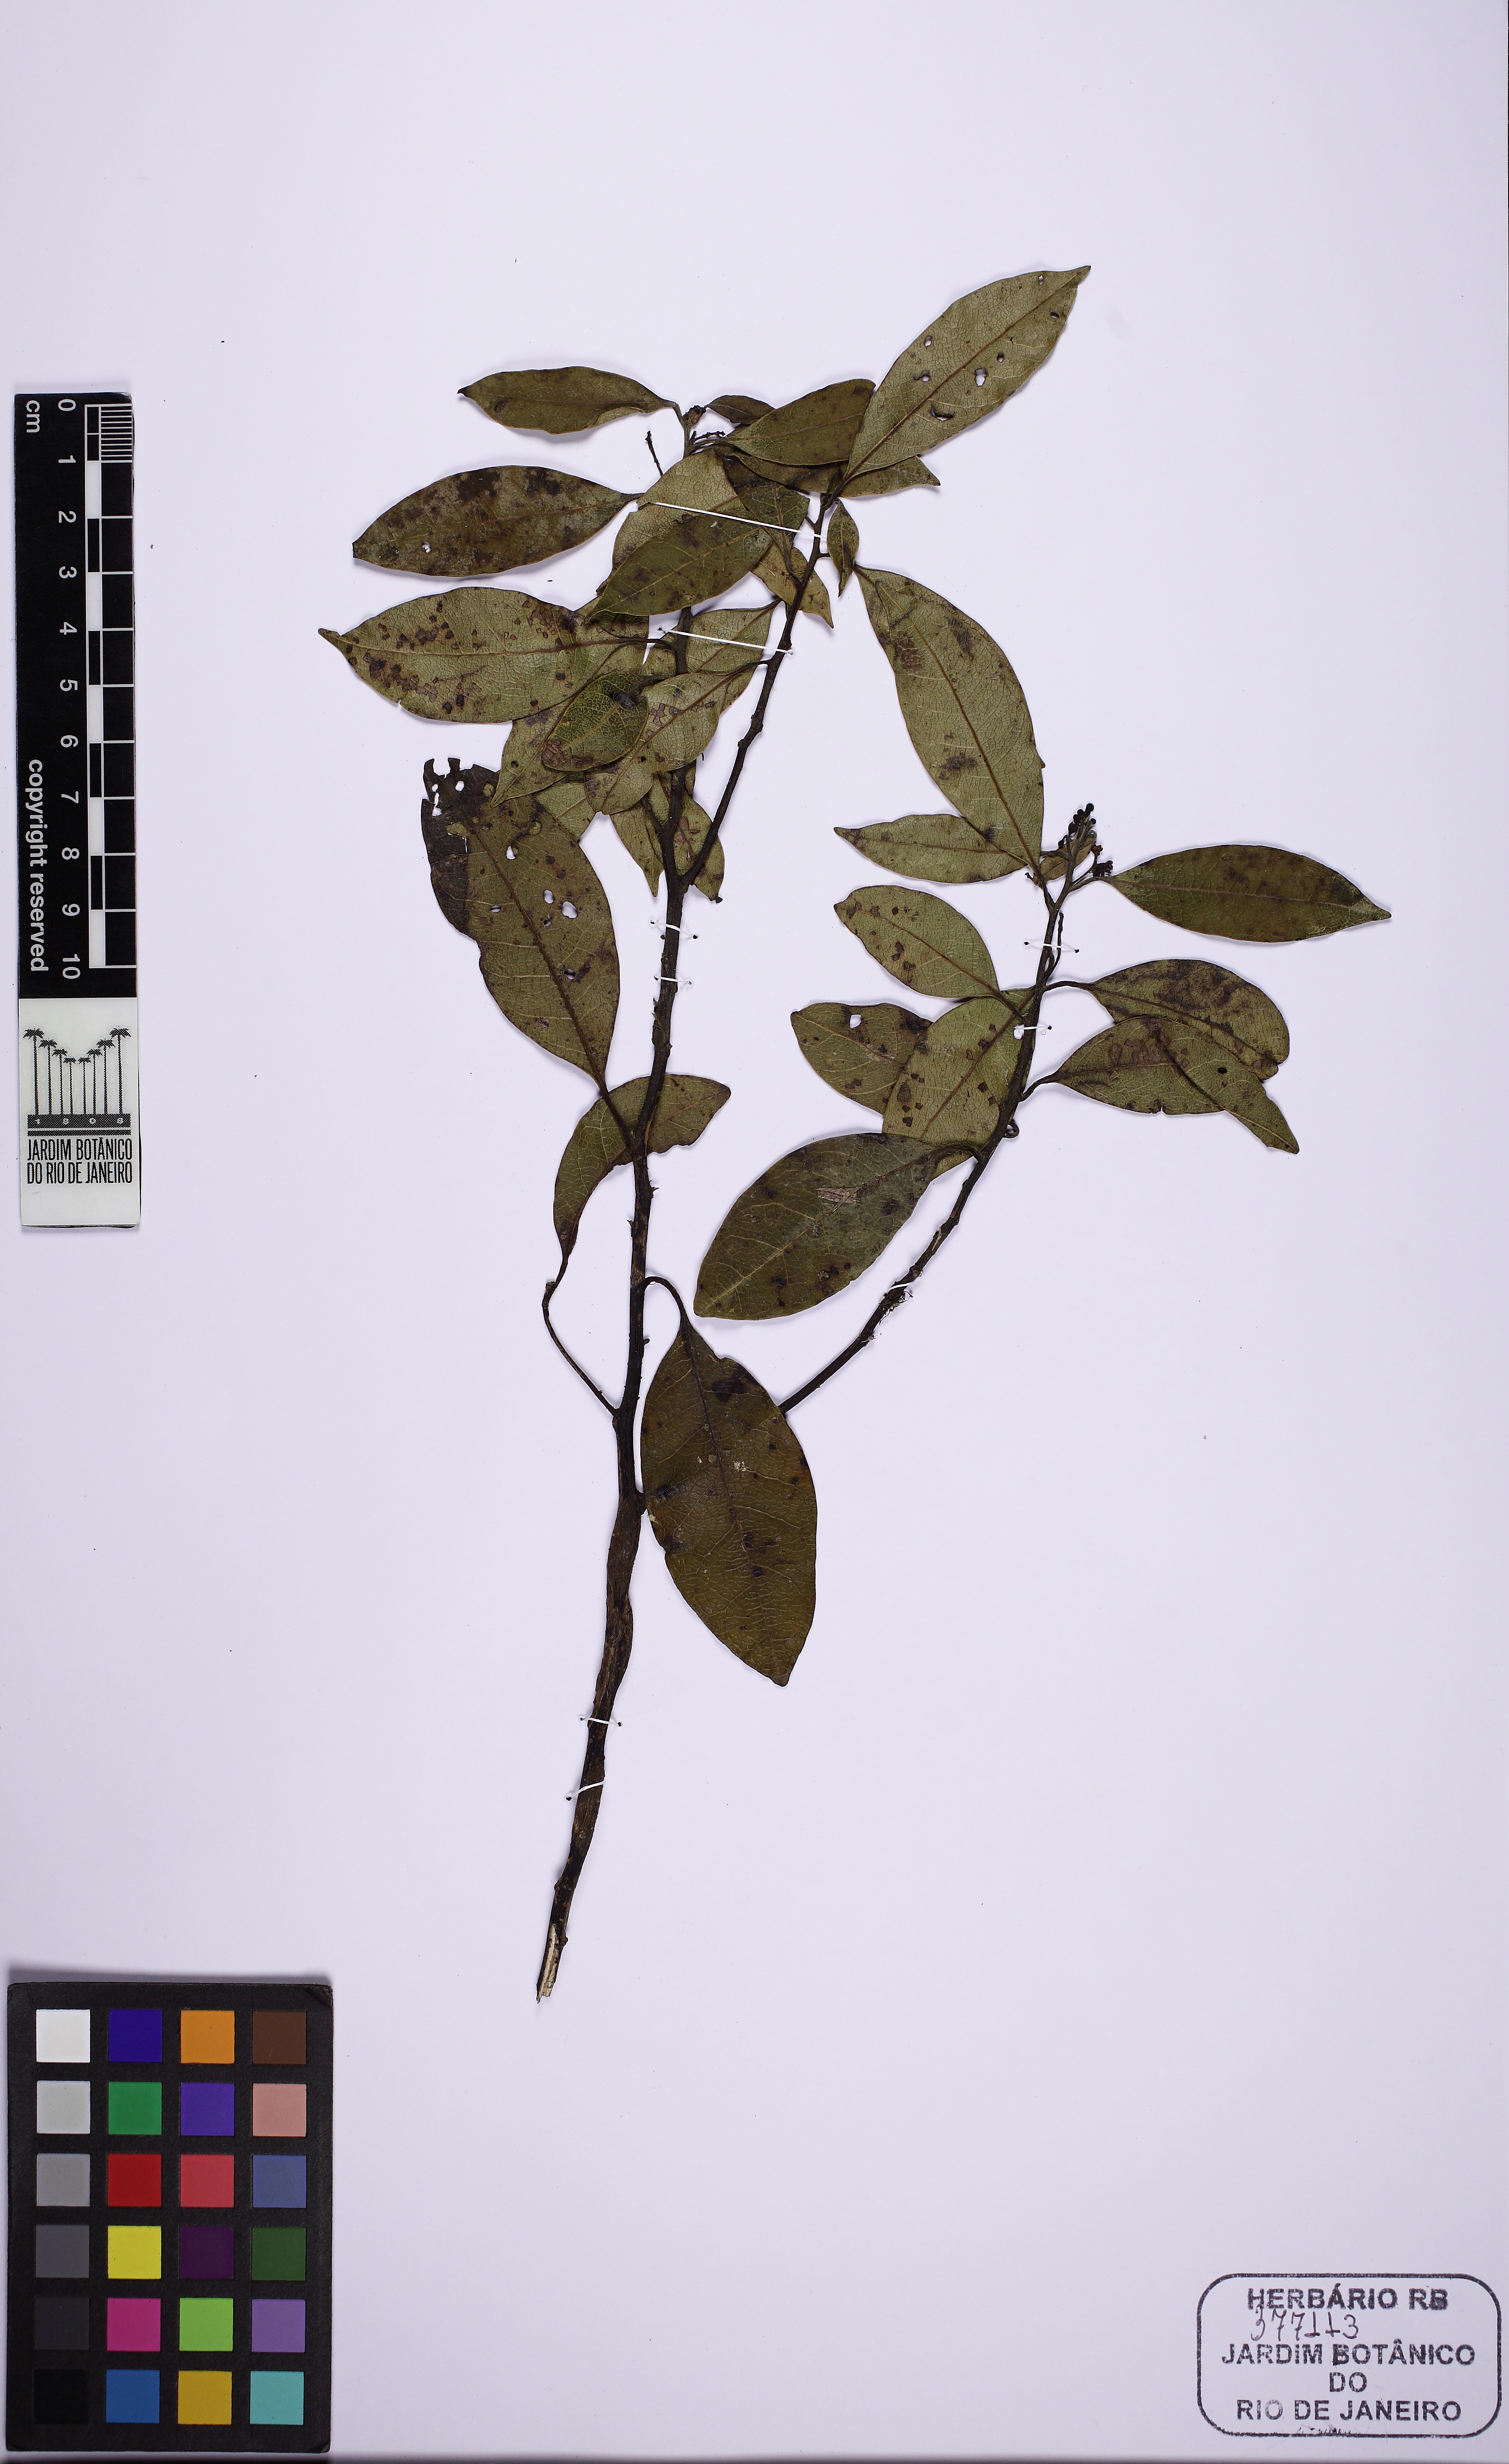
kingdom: Plantae
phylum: Tracheophyta
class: Magnoliopsida
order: Laurales
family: Lauraceae
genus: Ocotea
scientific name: Ocotea puberula
